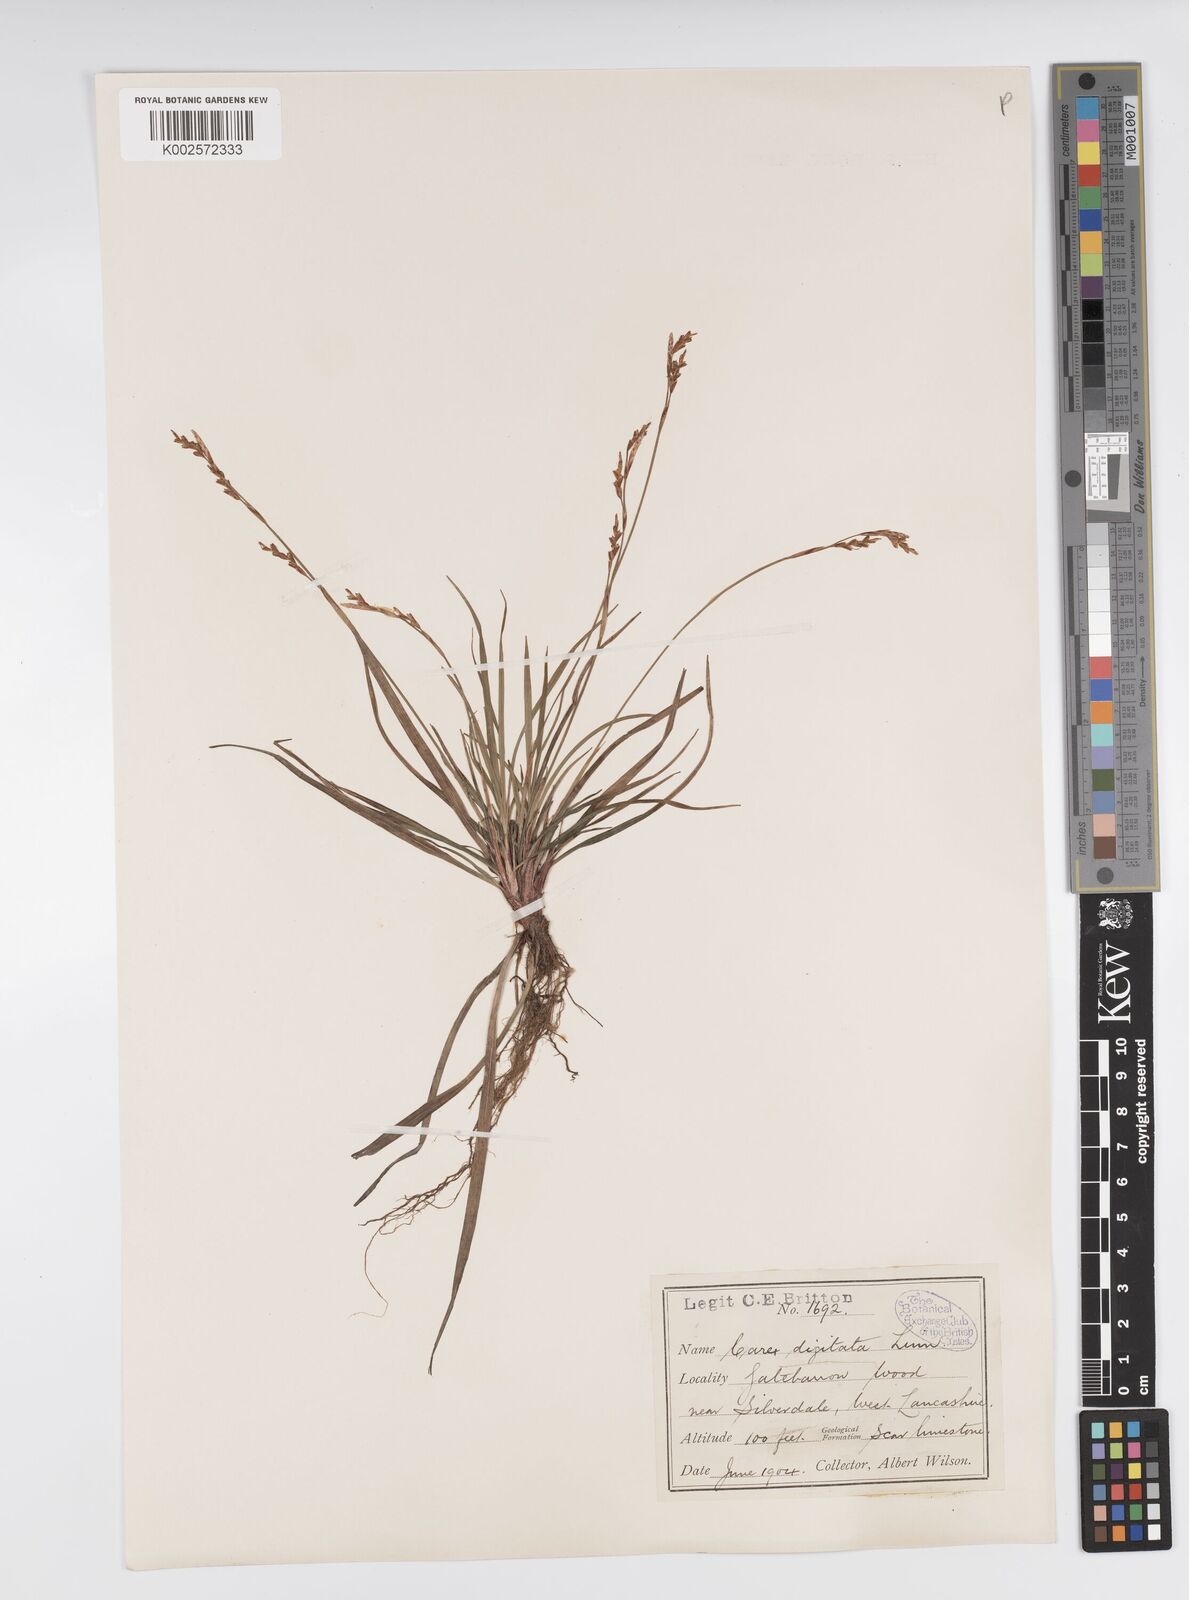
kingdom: Plantae
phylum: Tracheophyta
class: Liliopsida
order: Poales
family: Cyperaceae
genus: Carex
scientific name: Carex digitata
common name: Fingered sedge
